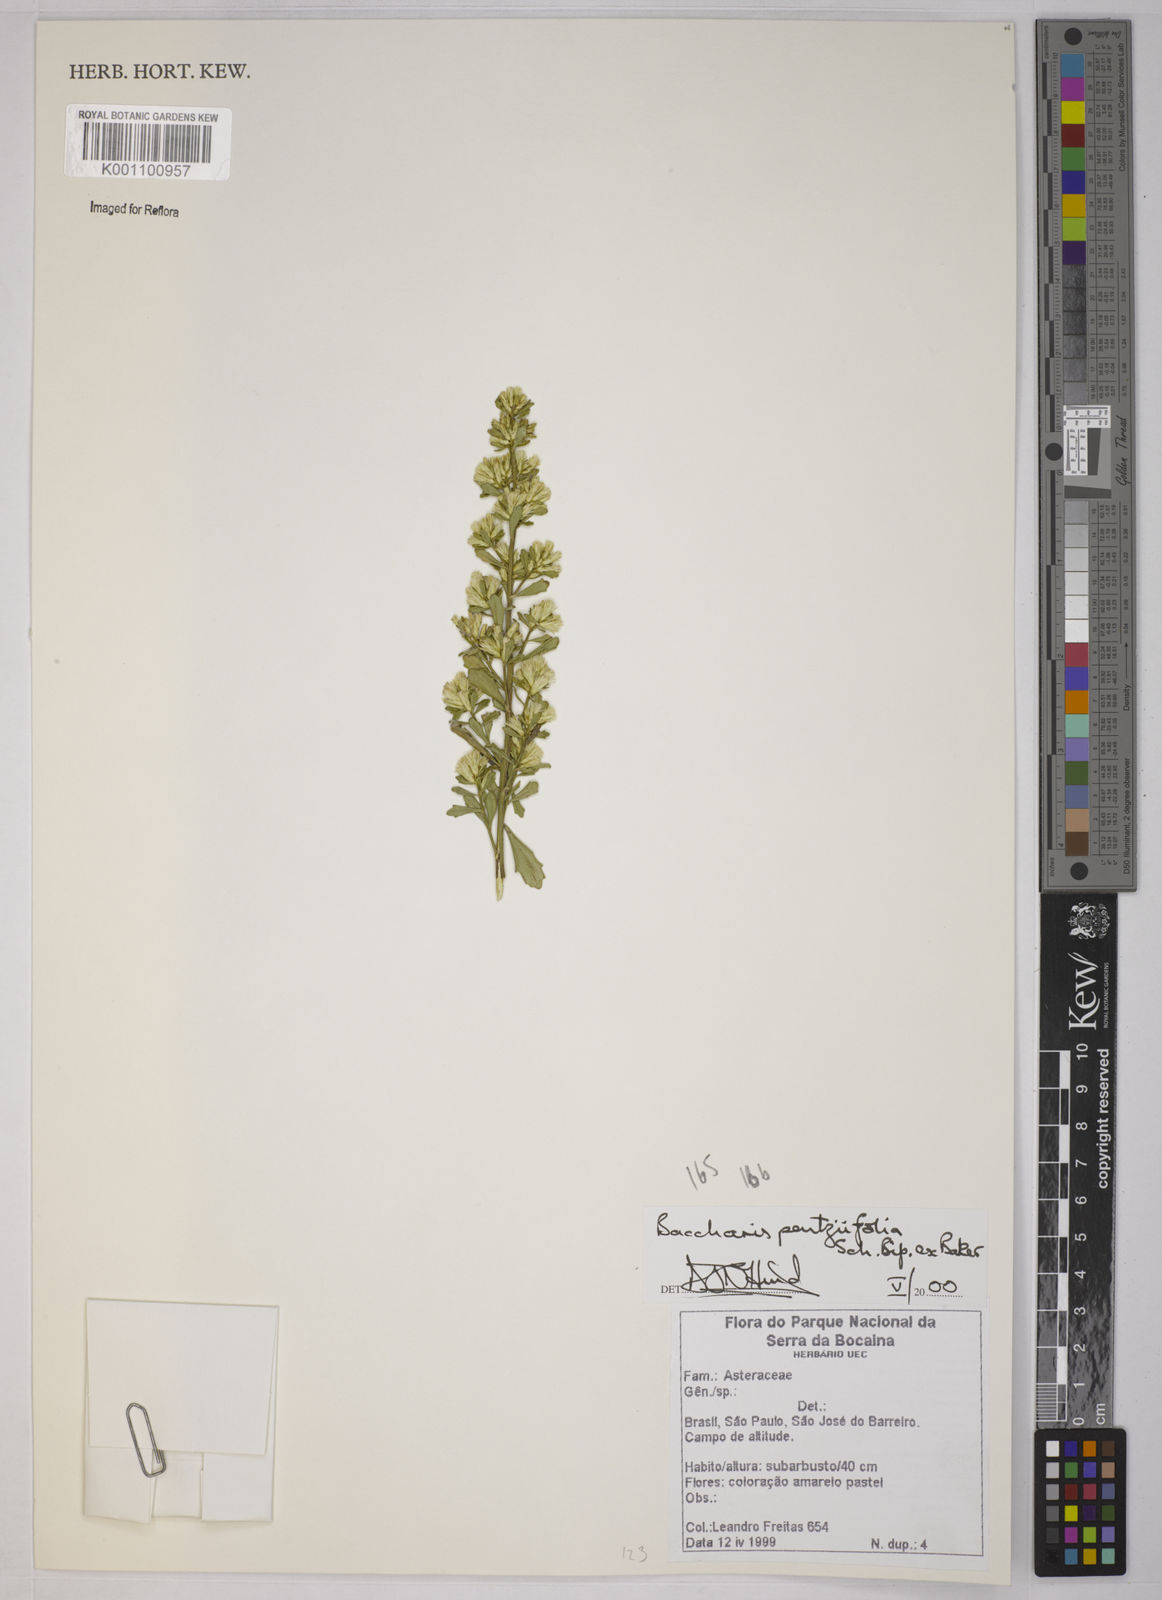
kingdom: Plantae
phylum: Tracheophyta
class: Magnoliopsida
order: Asterales
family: Asteraceae
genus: Baccharis
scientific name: Baccharis pentziifolia
